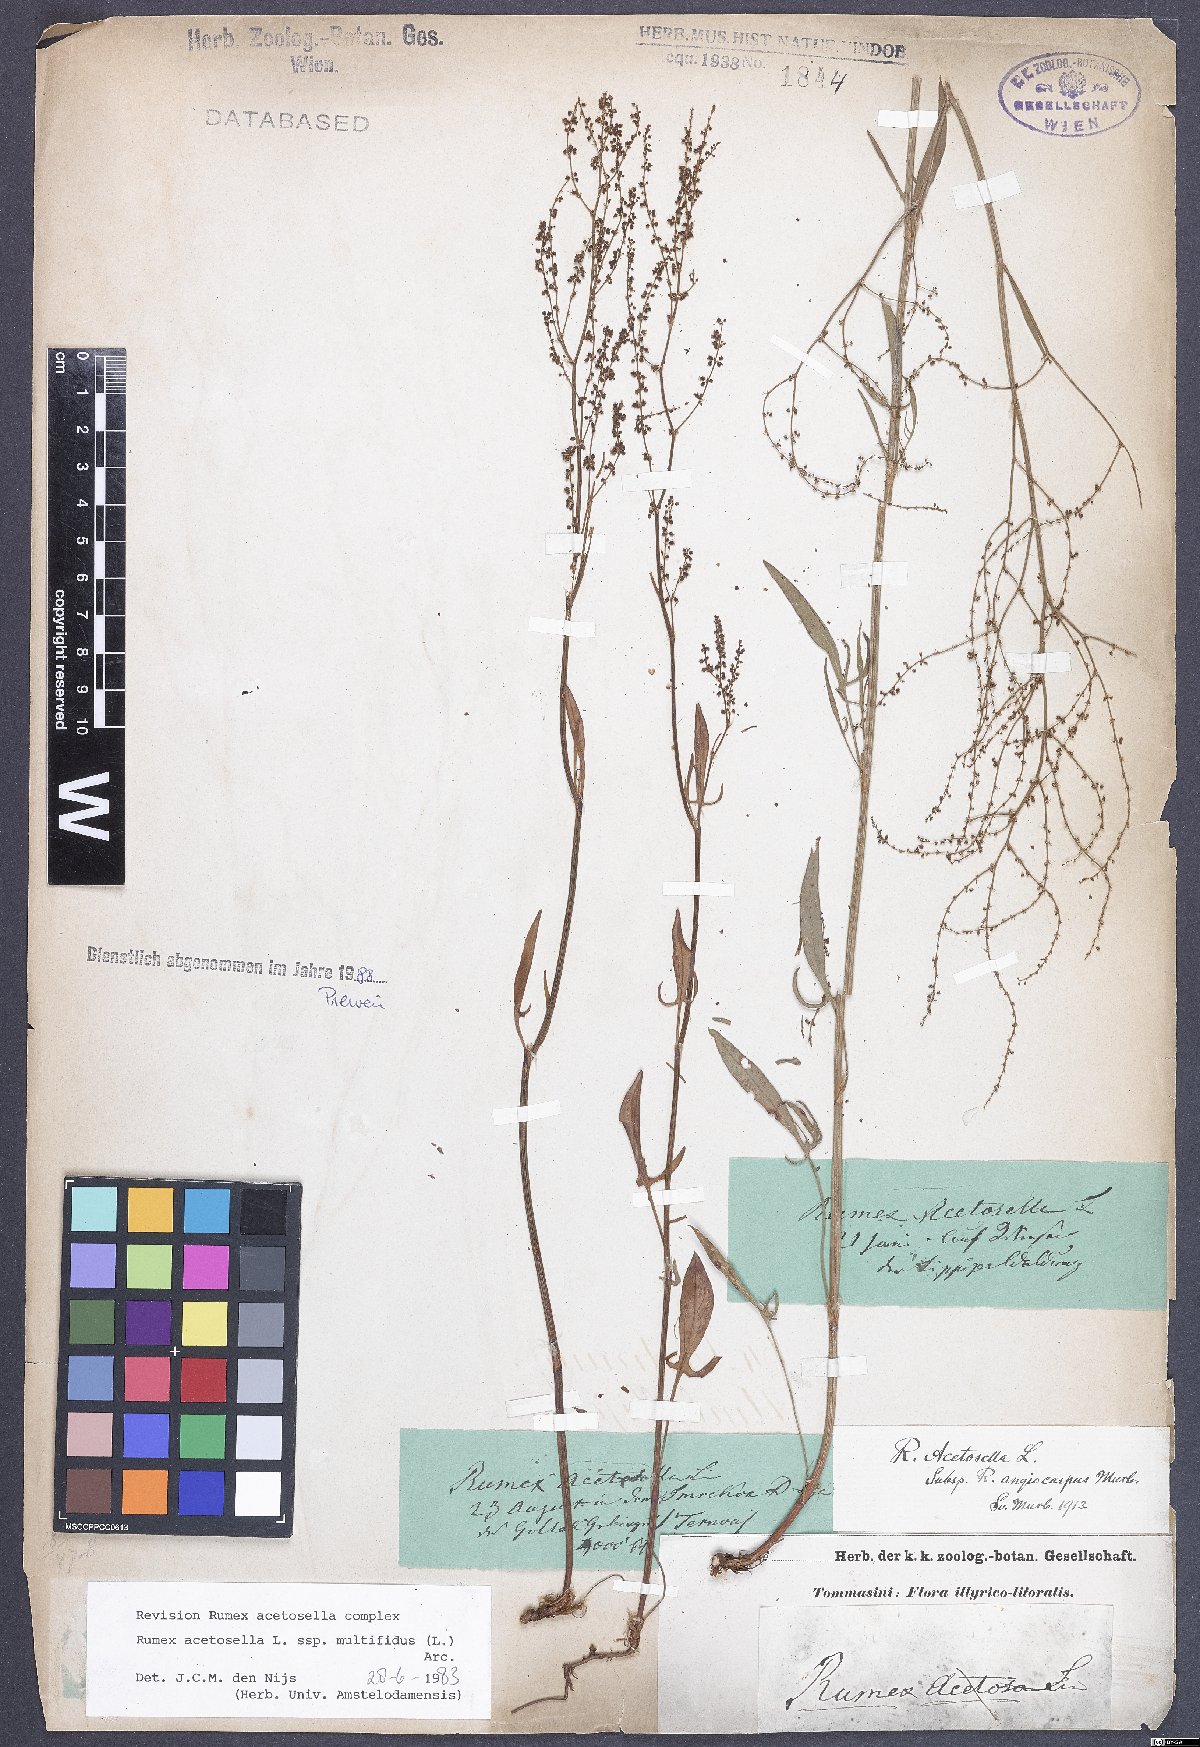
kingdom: Plantae
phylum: Tracheophyta
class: Magnoliopsida
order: Caryophyllales
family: Polygonaceae
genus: Rumex
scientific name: Rumex acetosella
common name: Common sheep sorrel
